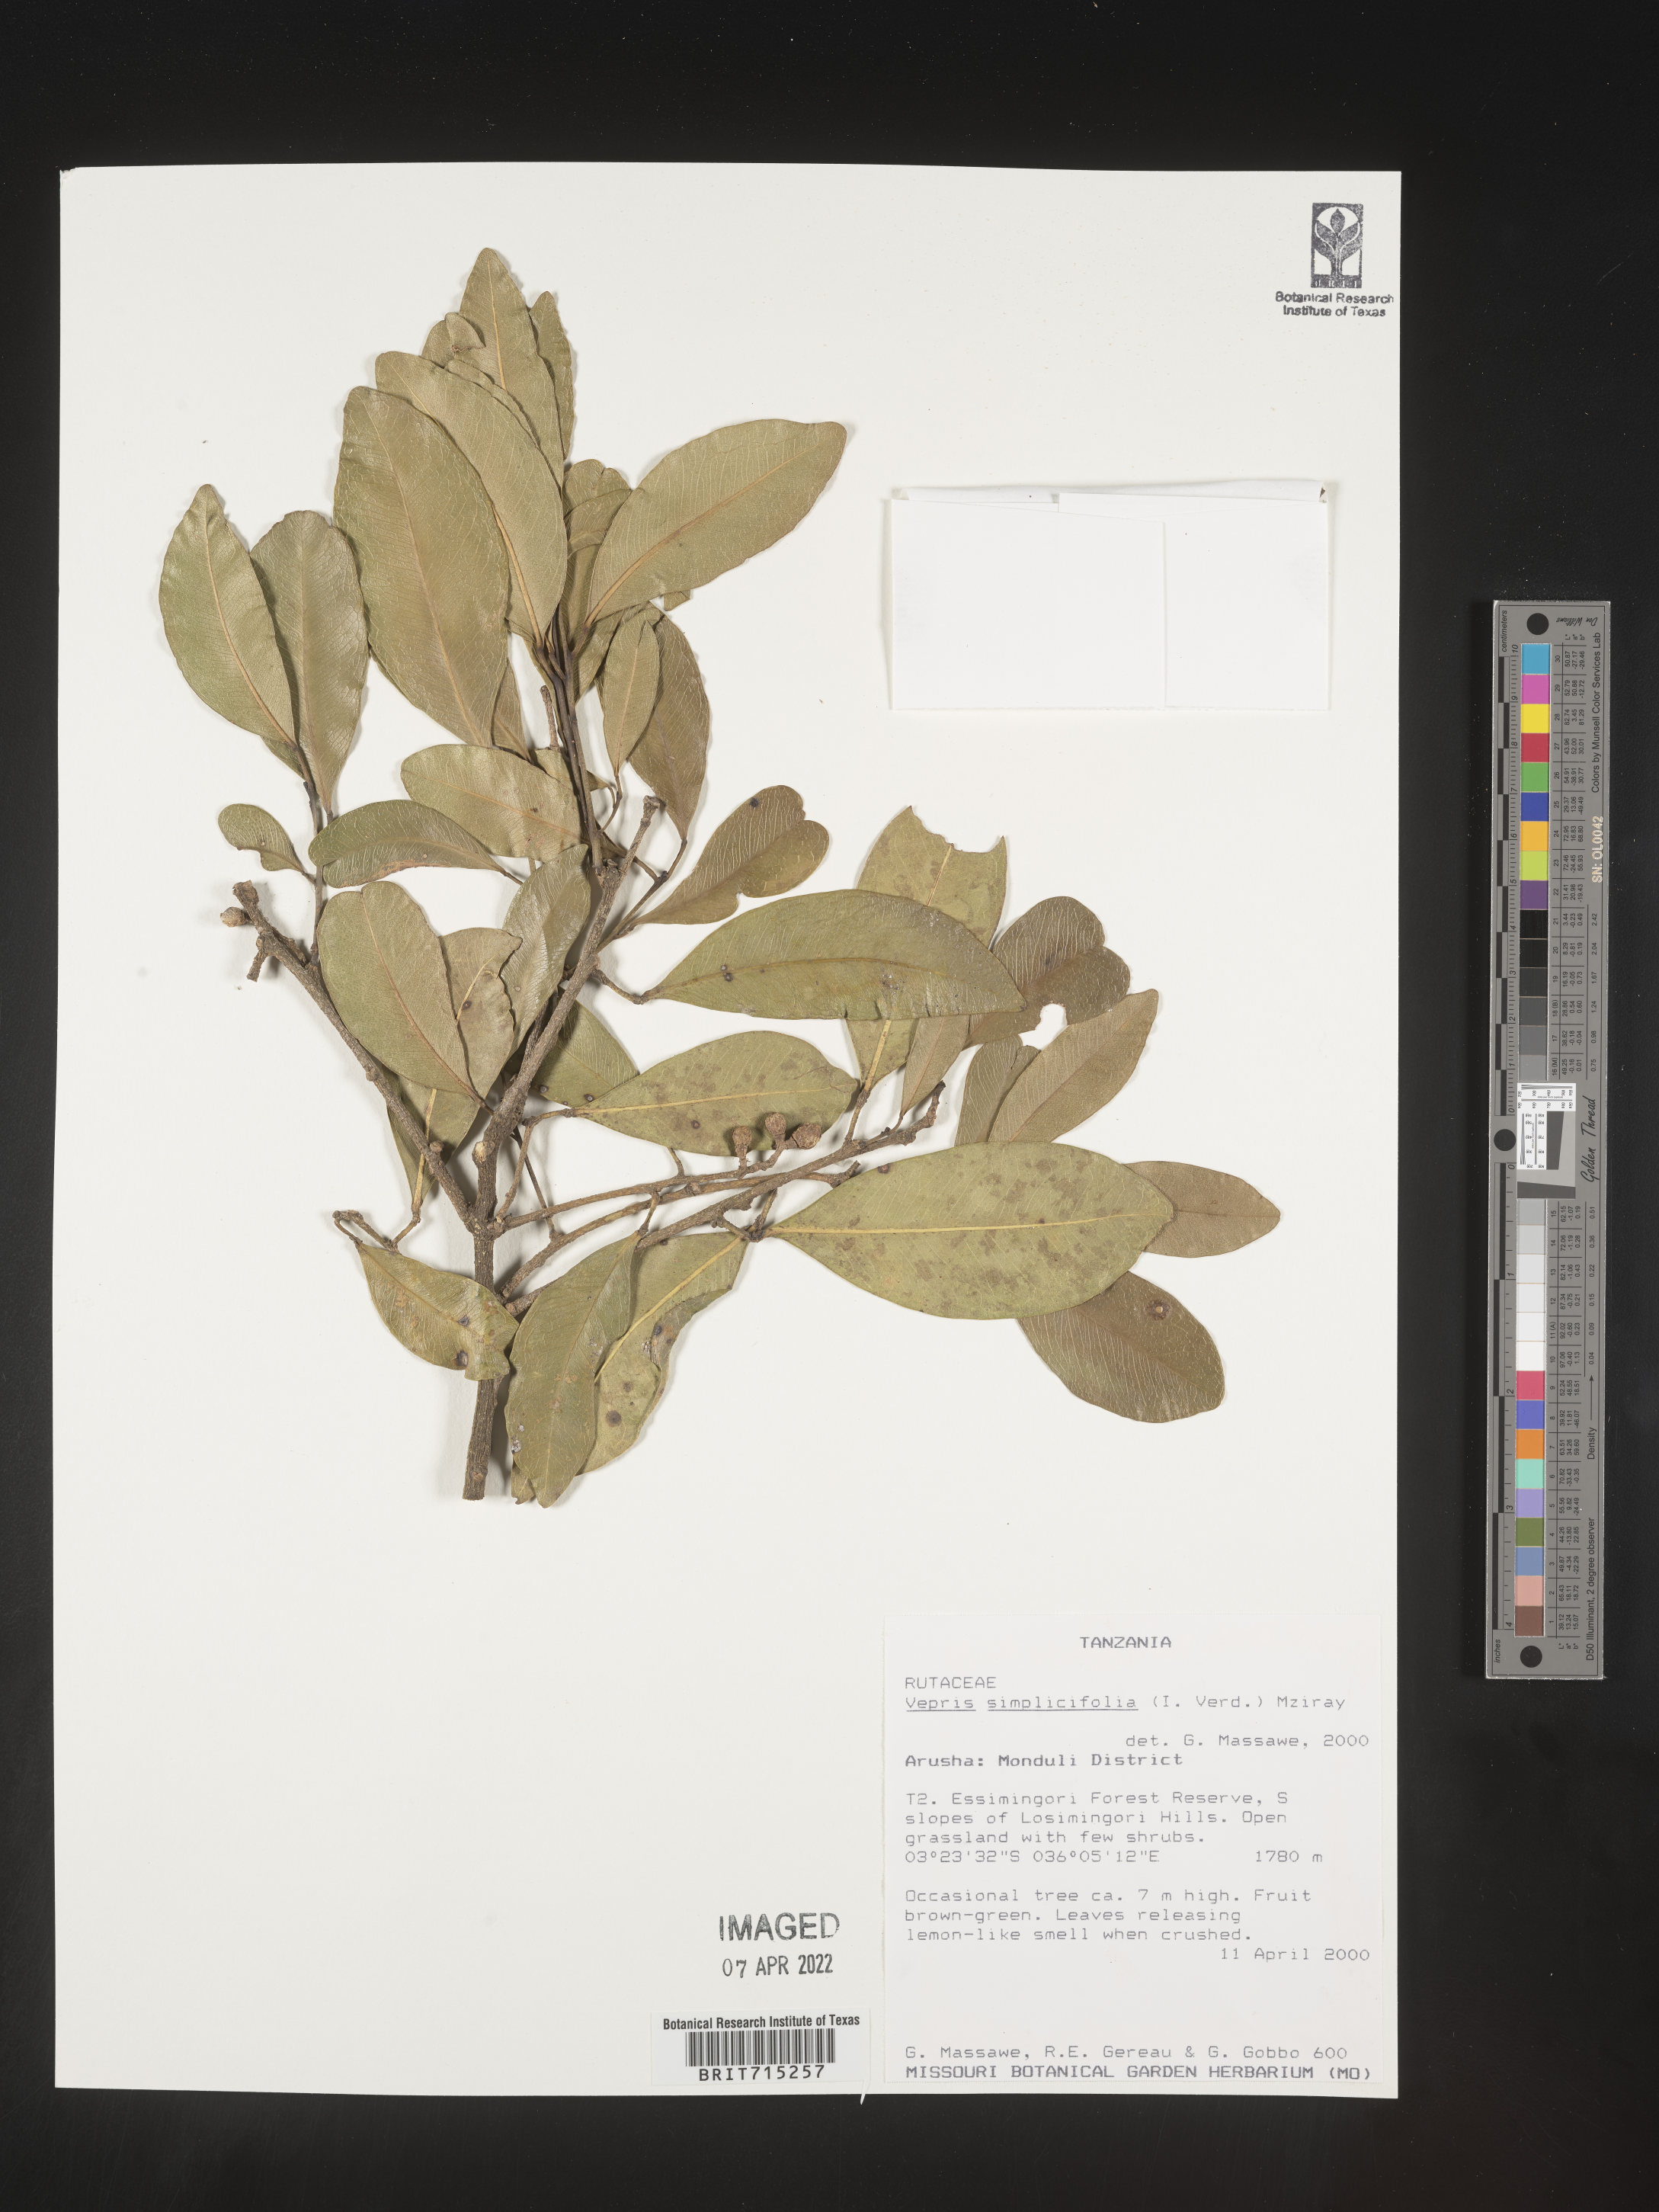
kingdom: Plantae
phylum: Tracheophyta
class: Magnoliopsida
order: Sapindales
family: Rutaceae
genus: Vepris
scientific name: Vepris
